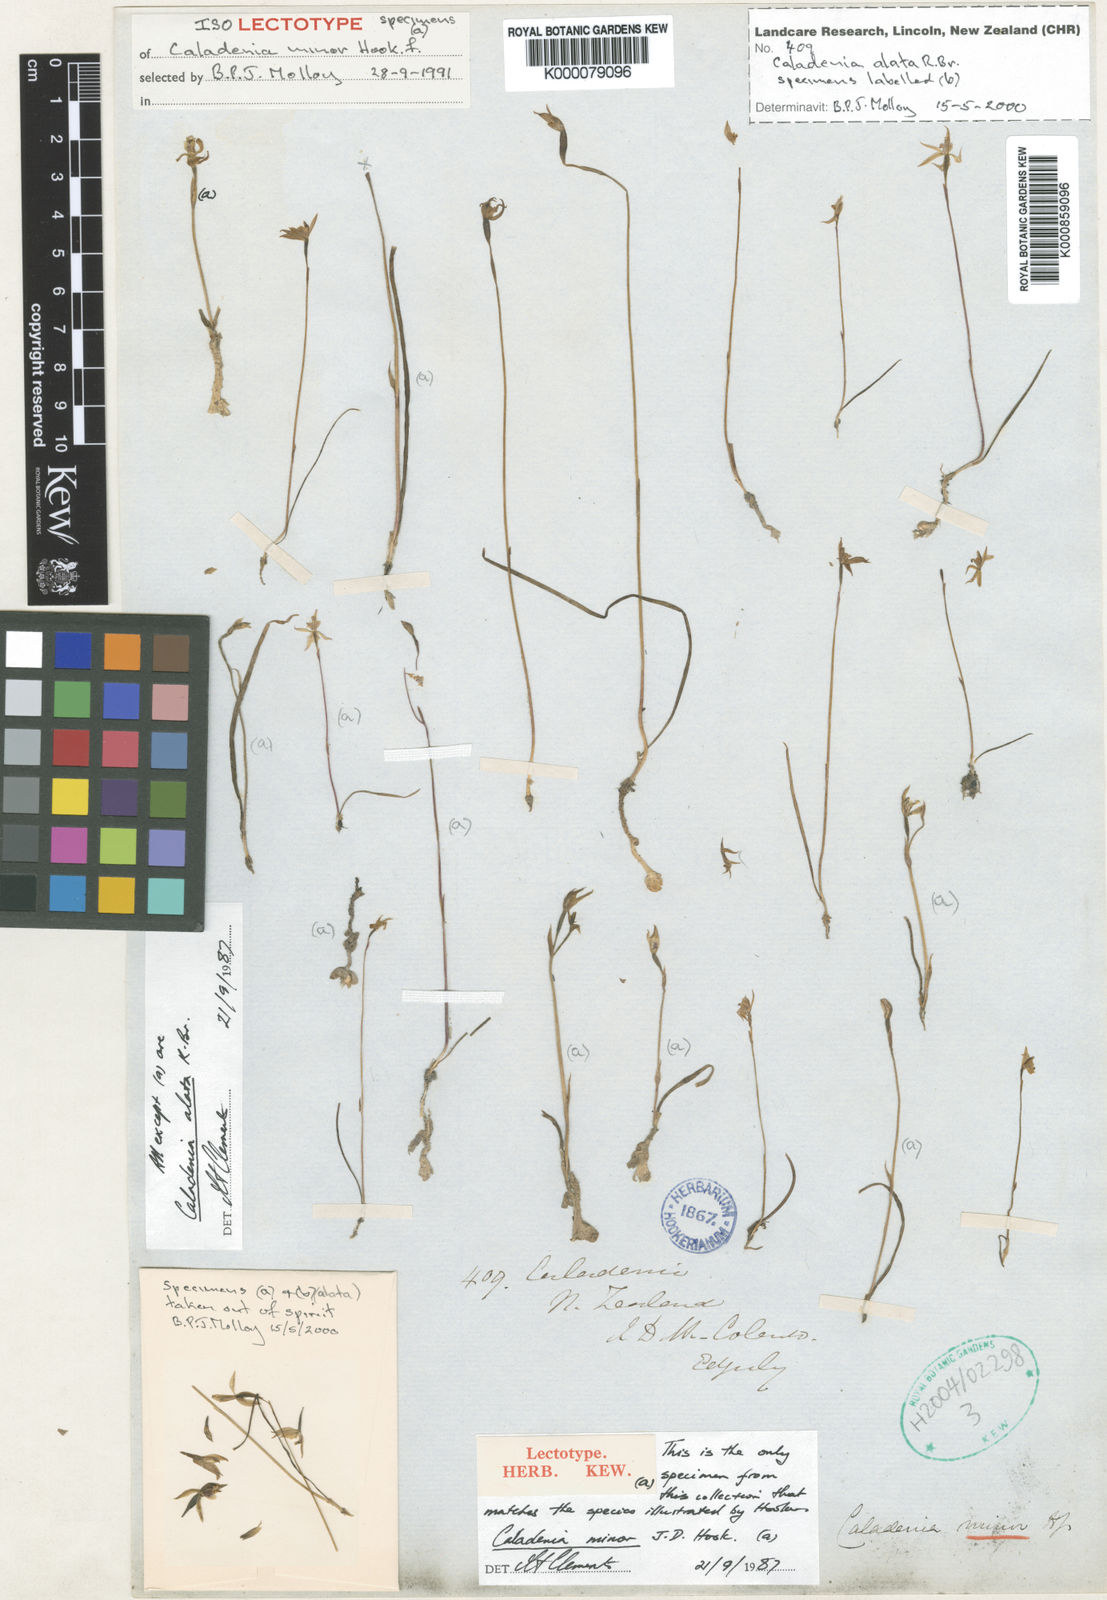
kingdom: Plantae
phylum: Tracheophyta
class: Liliopsida
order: Asparagales
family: Orchidaceae
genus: Caladenia
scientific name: Caladenia minor
